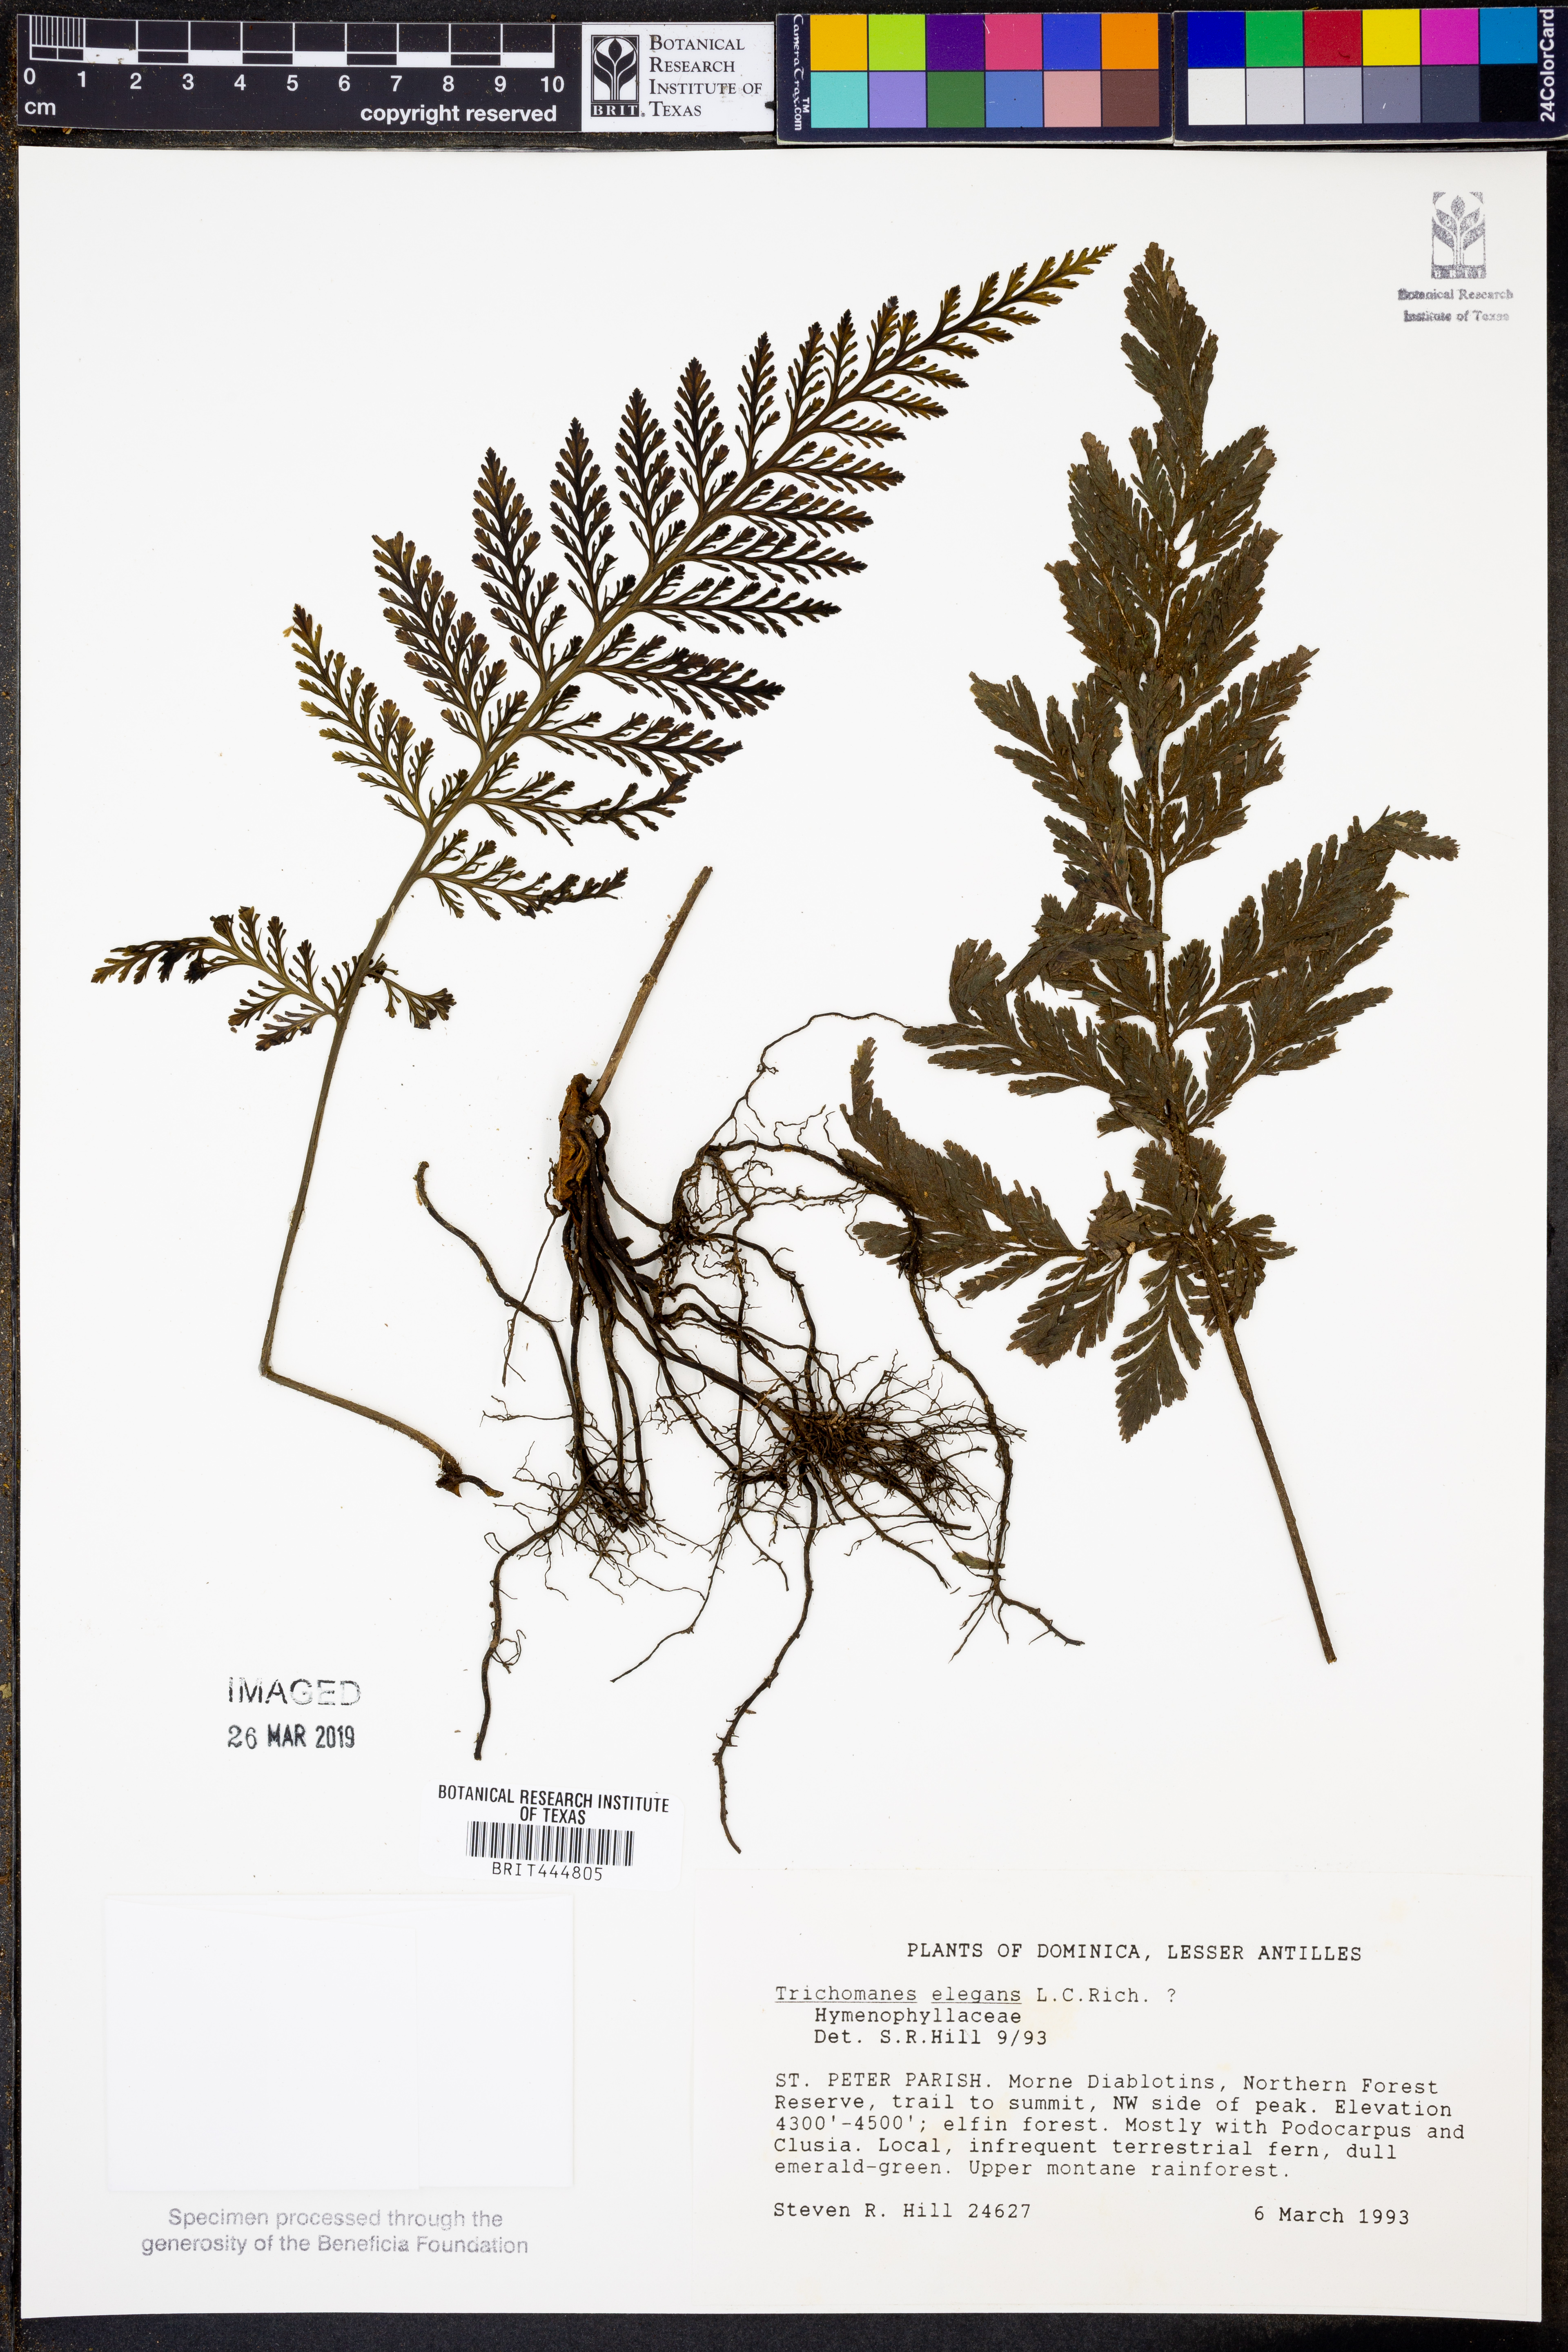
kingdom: Plantae
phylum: Tracheophyta
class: Polypodiopsida
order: Hymenophyllales
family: Hymenophyllaceae
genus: Trichomanes
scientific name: Trichomanes elegans
